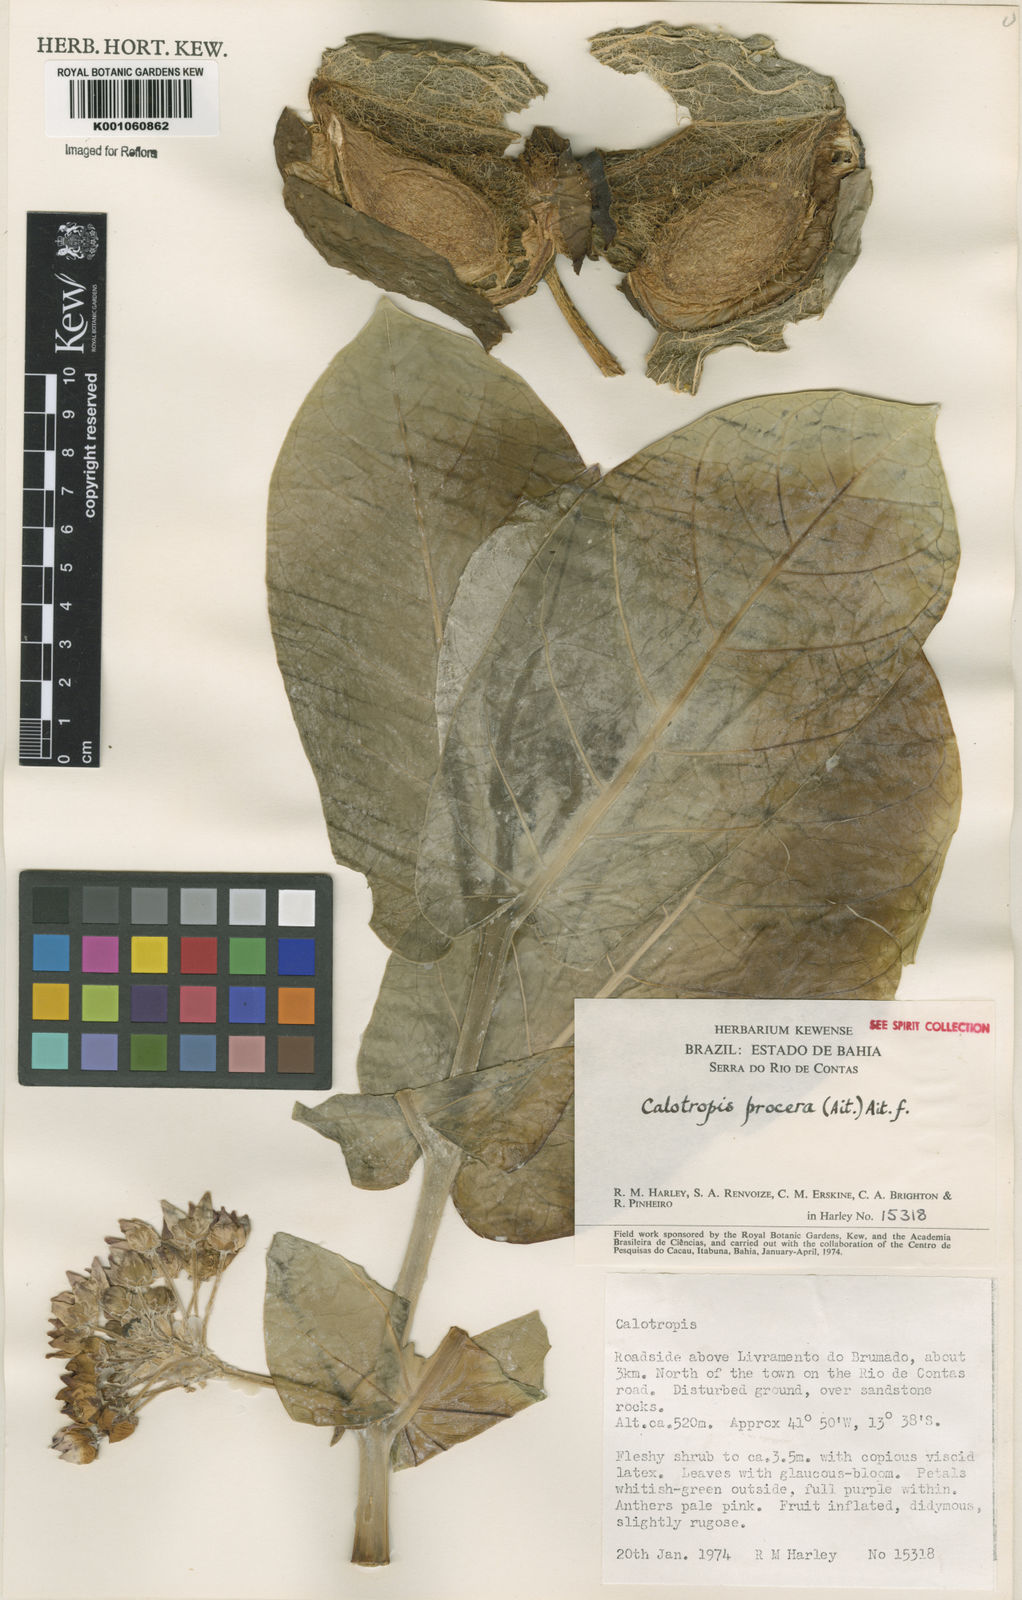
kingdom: Plantae
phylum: Tracheophyta
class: Magnoliopsida
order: Gentianales
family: Apocynaceae
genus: Calotropis
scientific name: Calotropis procera
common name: Roostertree
